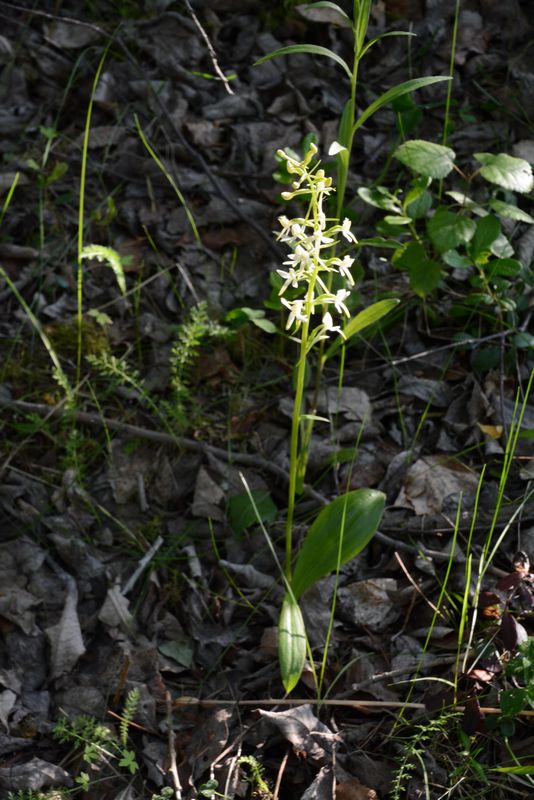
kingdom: Plantae
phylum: Tracheophyta
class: Liliopsida
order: Asparagales
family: Orchidaceae
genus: Platanthera
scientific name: Platanthera bifolia
